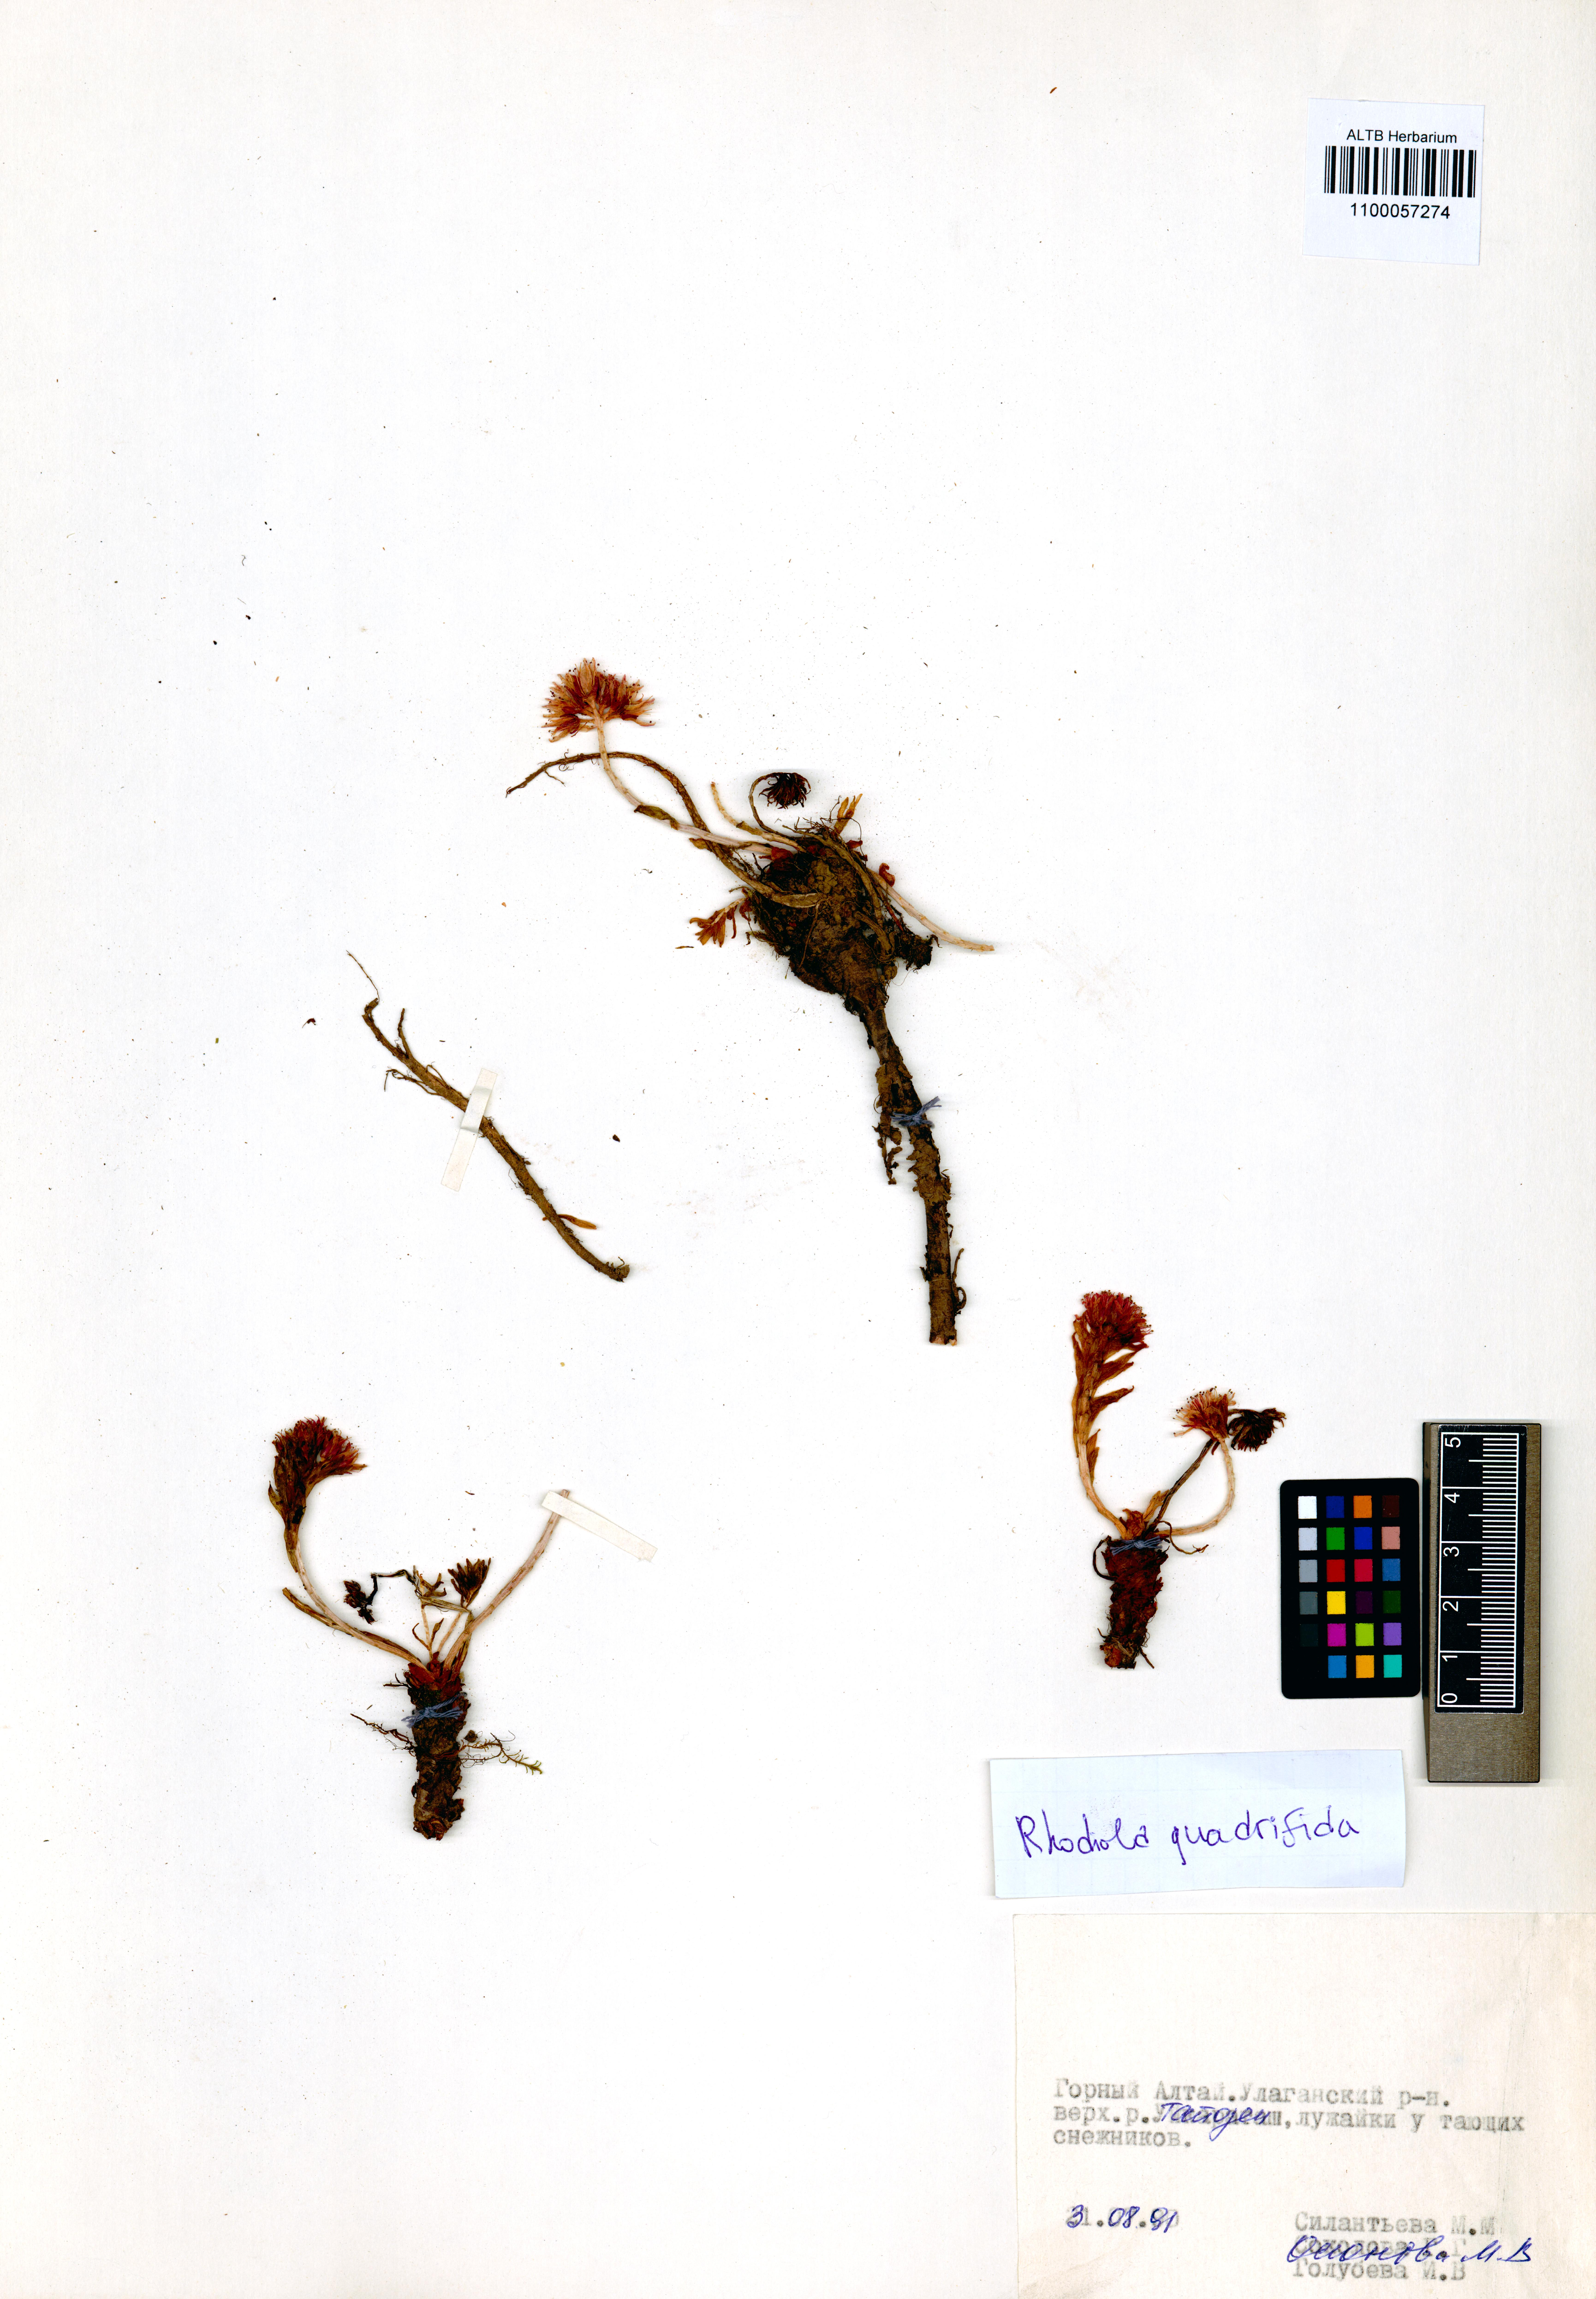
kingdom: Plantae
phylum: Tracheophyta
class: Magnoliopsida
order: Saxifragales
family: Crassulaceae
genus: Rhodiola
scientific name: Rhodiola quadrifida
